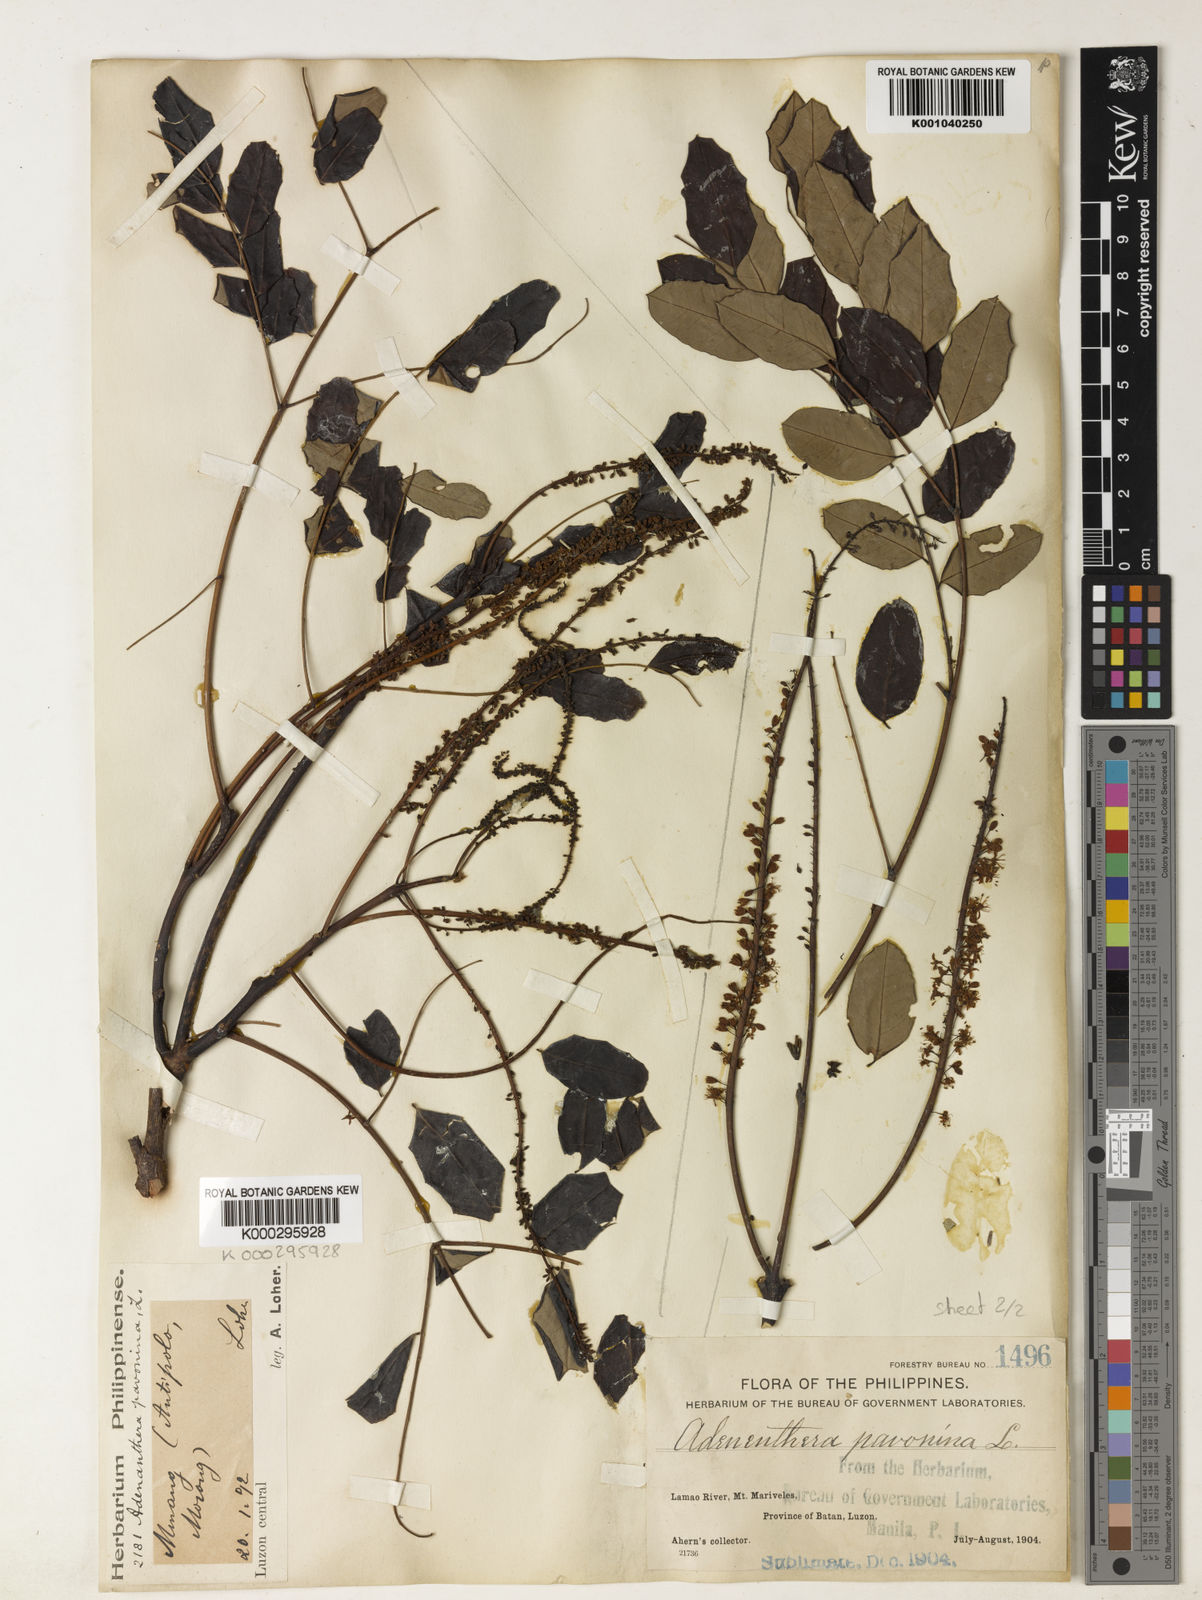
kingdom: Plantae
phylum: Tracheophyta
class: Magnoliopsida
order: Fabales
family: Fabaceae
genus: Adenanthera
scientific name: Adenanthera pavonina
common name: Red beadtree
